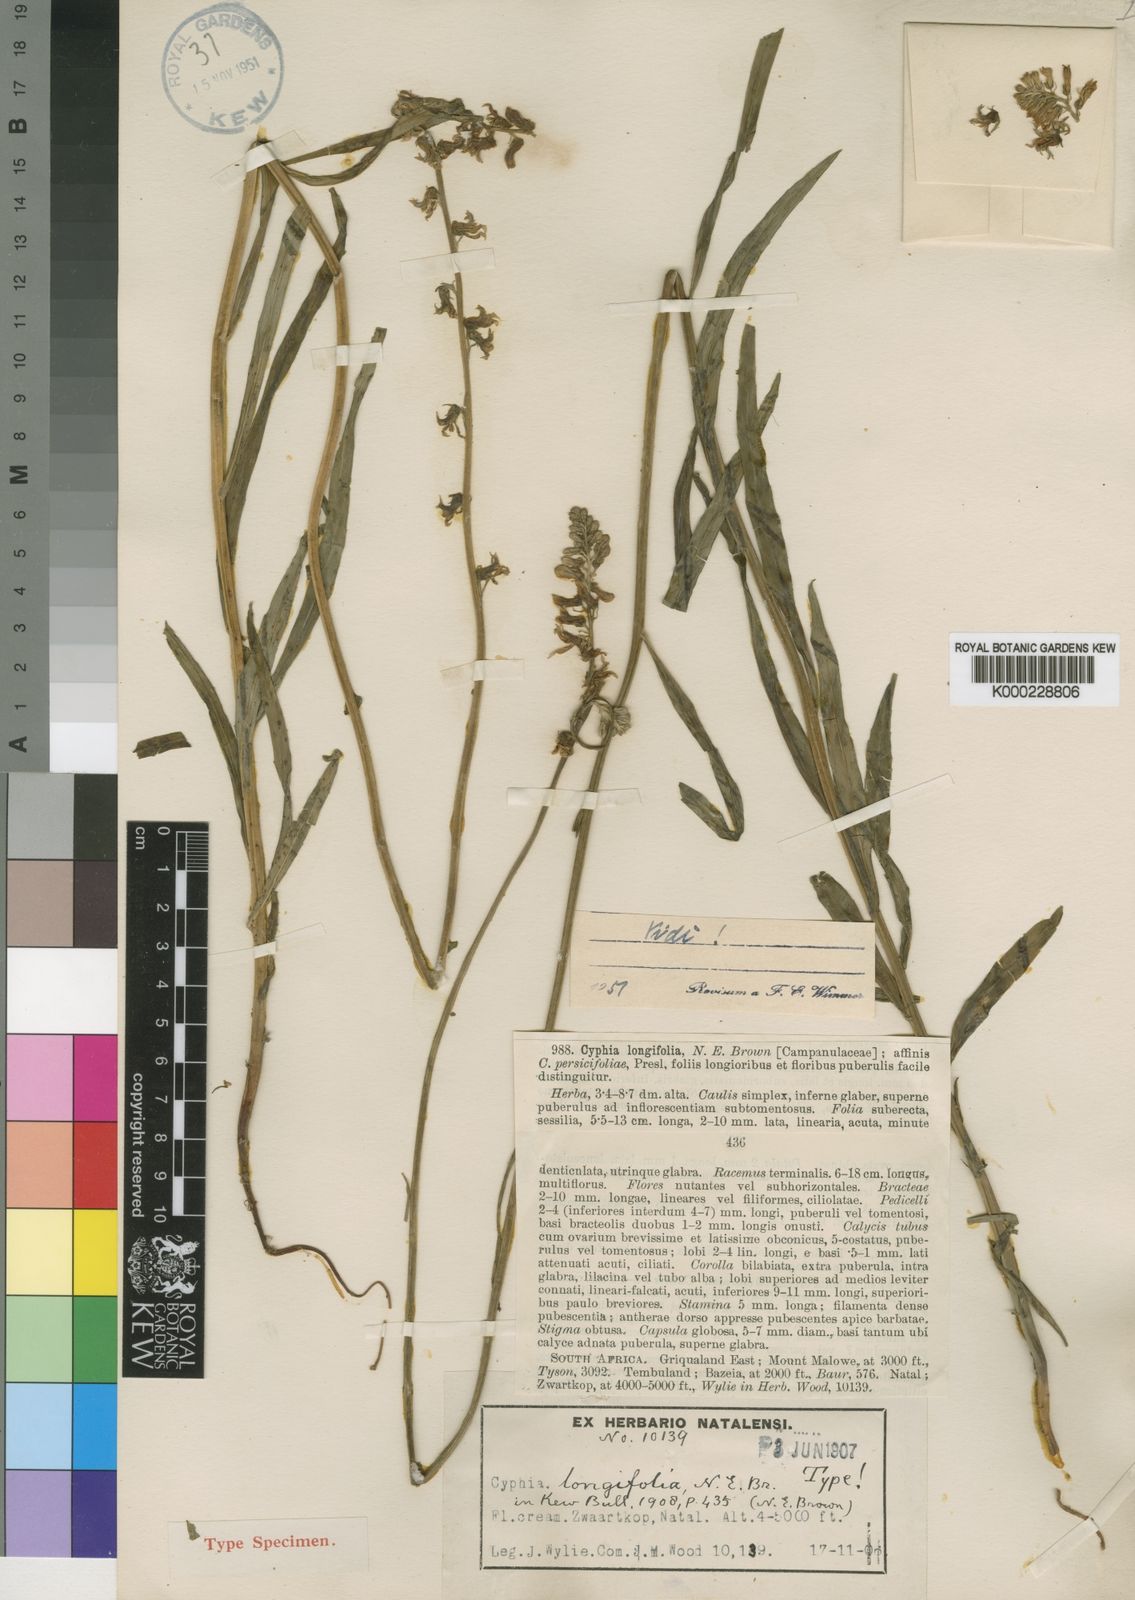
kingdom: Plantae
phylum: Tracheophyta
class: Magnoliopsida
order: Asterales
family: Campanulaceae
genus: Cyphia
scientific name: Cyphia longifolia
